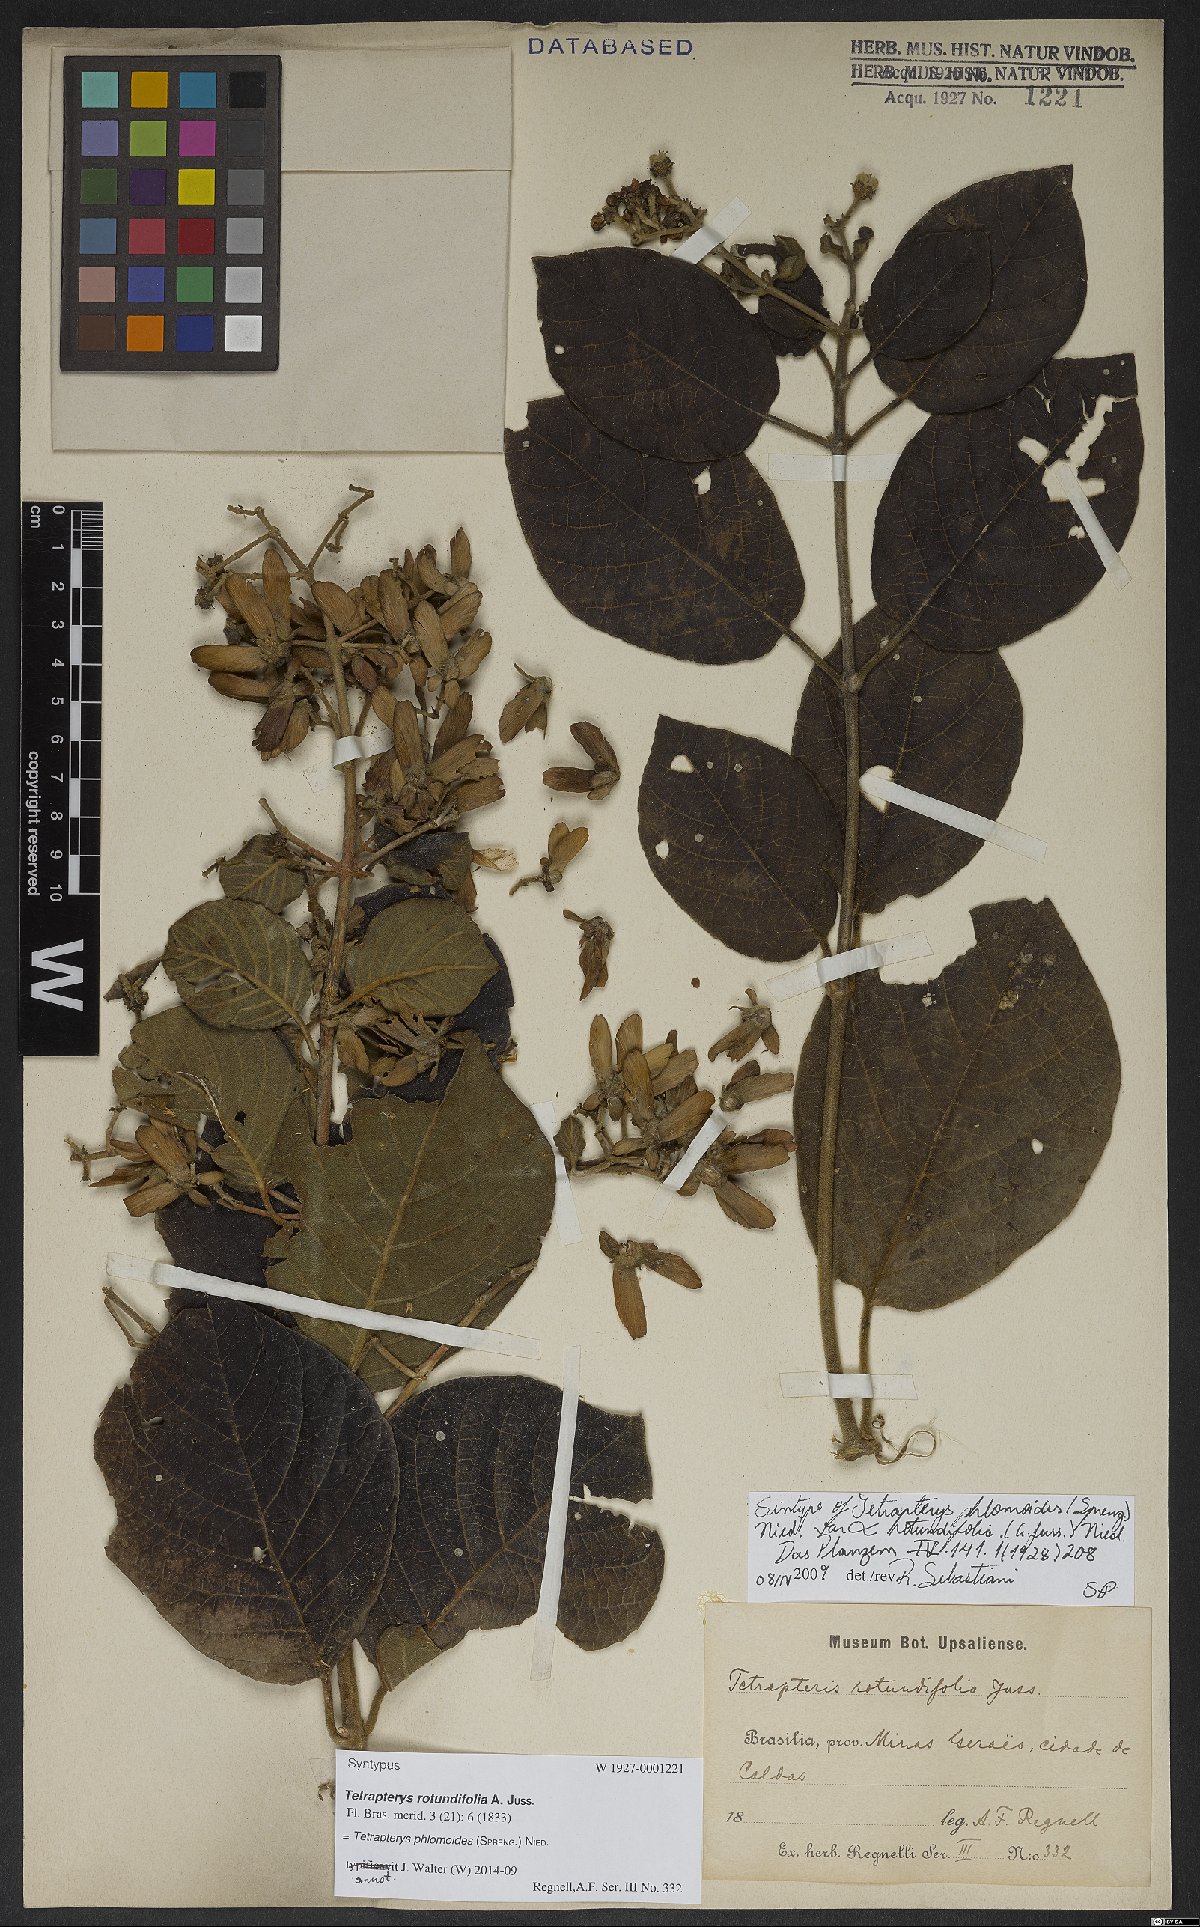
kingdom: Plantae
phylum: Tracheophyta
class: Magnoliopsida
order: Malpighiales
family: Malpighiaceae
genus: Tetrapterys
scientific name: Tetrapterys phlomoides
